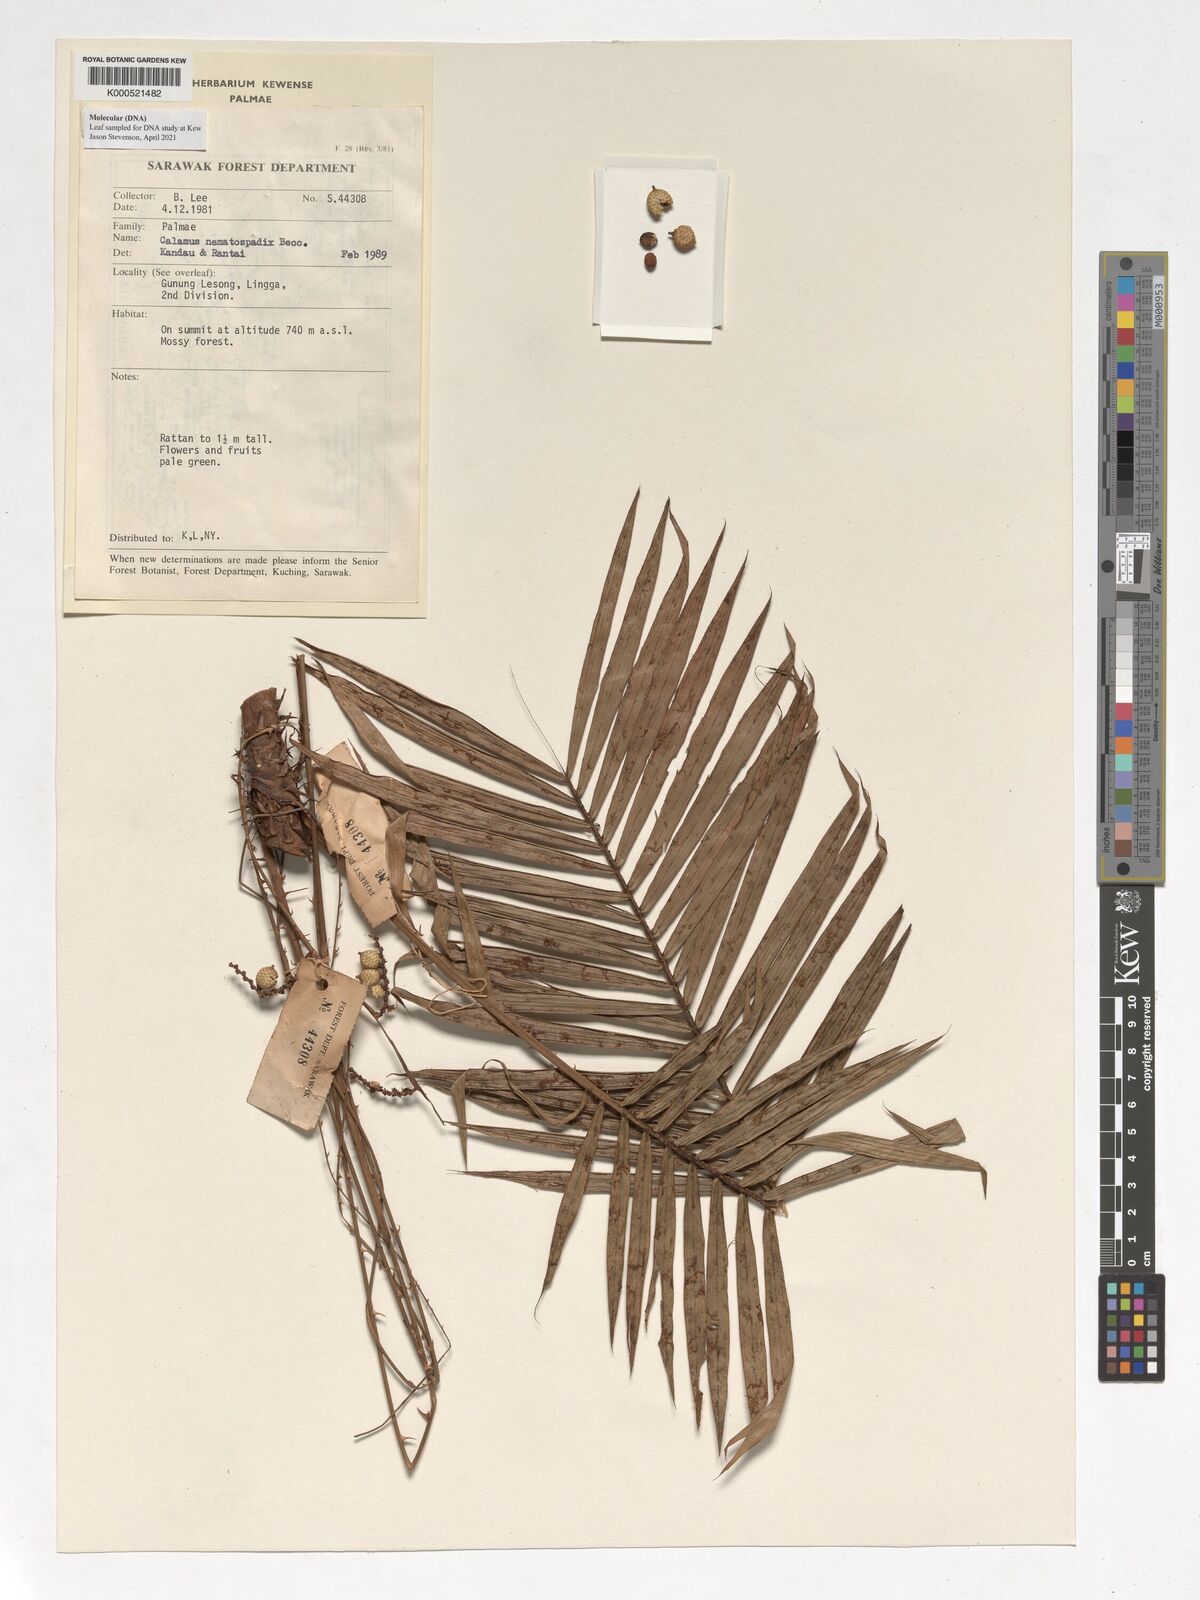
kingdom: Plantae
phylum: Tracheophyta
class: Liliopsida
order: Arecales
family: Arecaceae
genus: Calamus
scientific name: Calamus nematospadix
